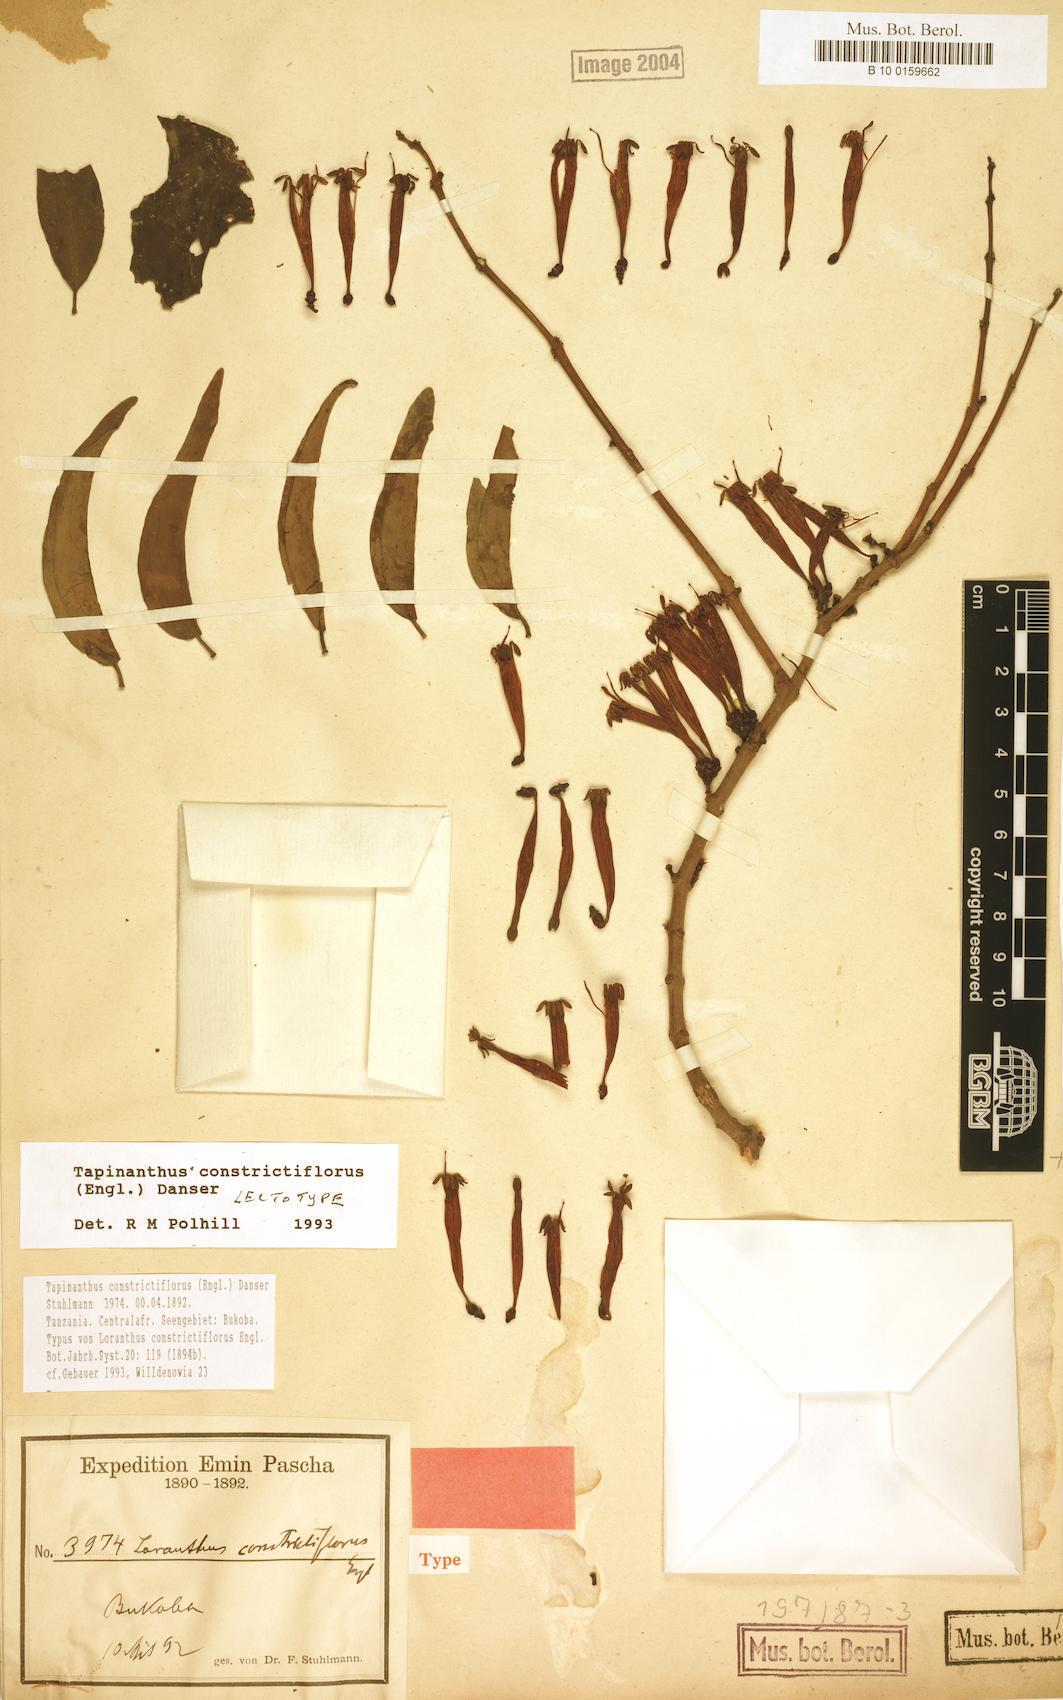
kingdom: Plantae
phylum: Tracheophyta
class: Magnoliopsida
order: Santalales
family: Loranthaceae
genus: Tapinanthus
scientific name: Tapinanthus constrictiflorus
